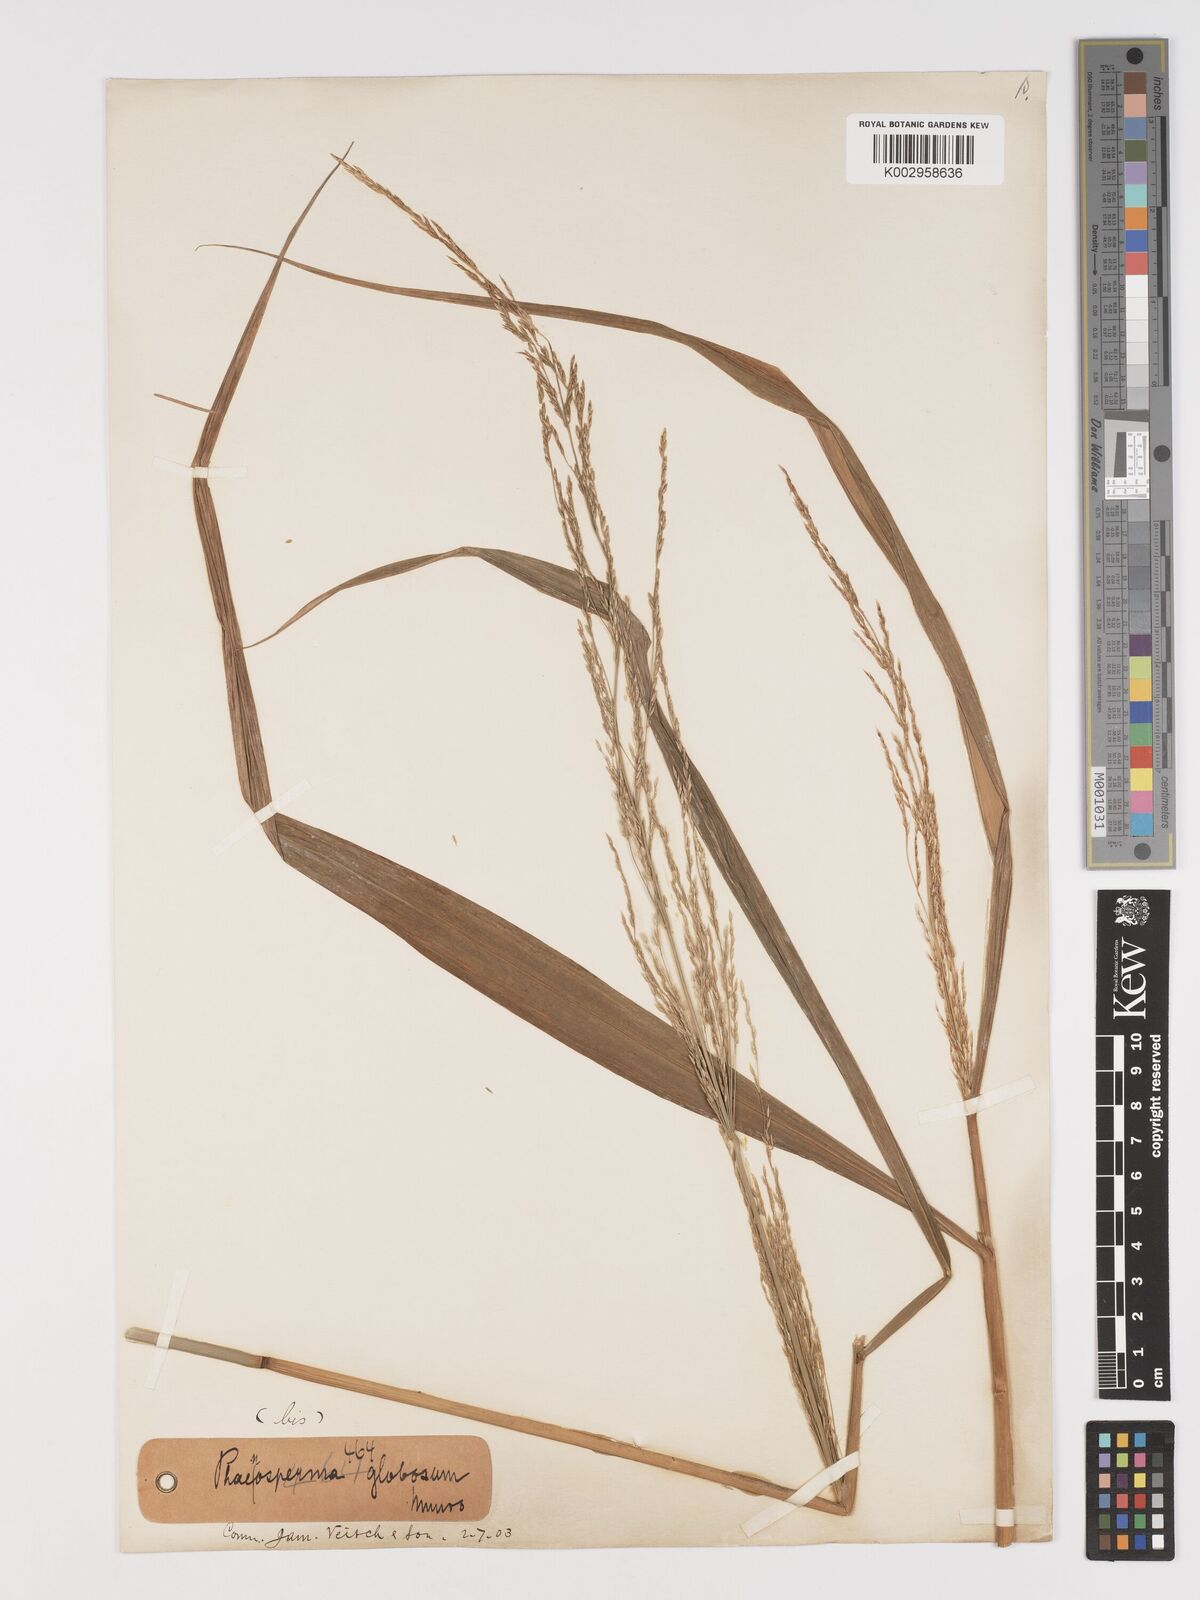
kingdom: Plantae
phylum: Tracheophyta
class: Liliopsida
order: Poales
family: Poaceae
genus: Phaenosperma
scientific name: Phaenosperma globosum
